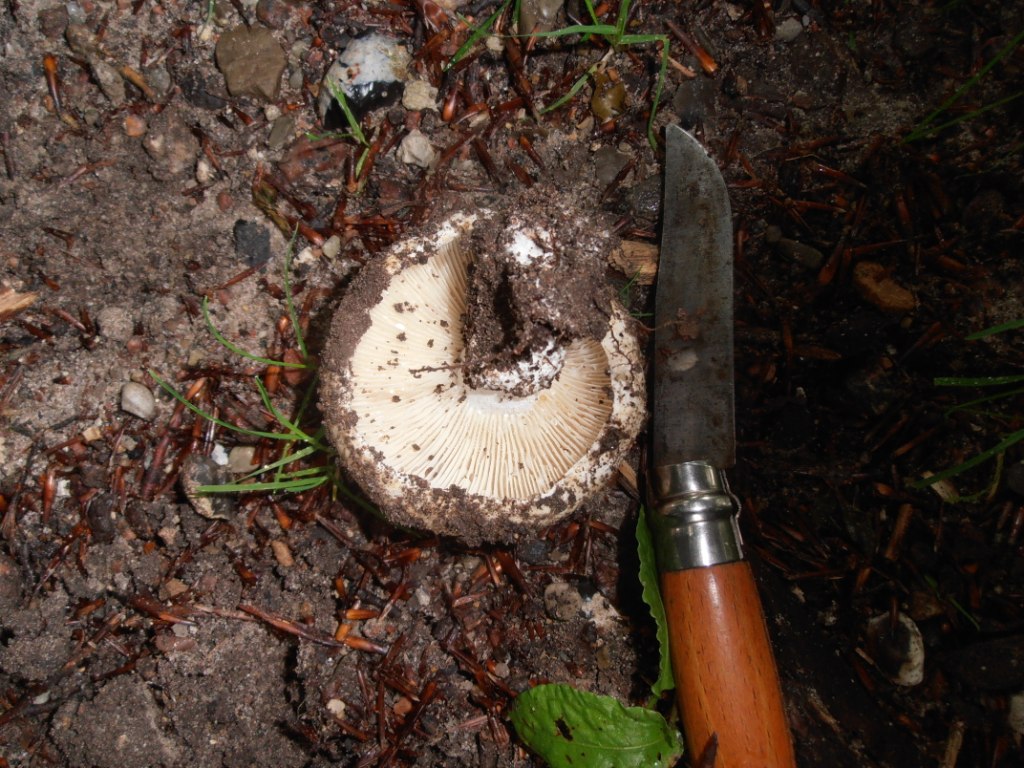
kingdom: Fungi
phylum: Basidiomycota
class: Agaricomycetes
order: Russulales
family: Russulaceae
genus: Lactarius
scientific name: Lactarius pallidus
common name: bleg mælkehat
